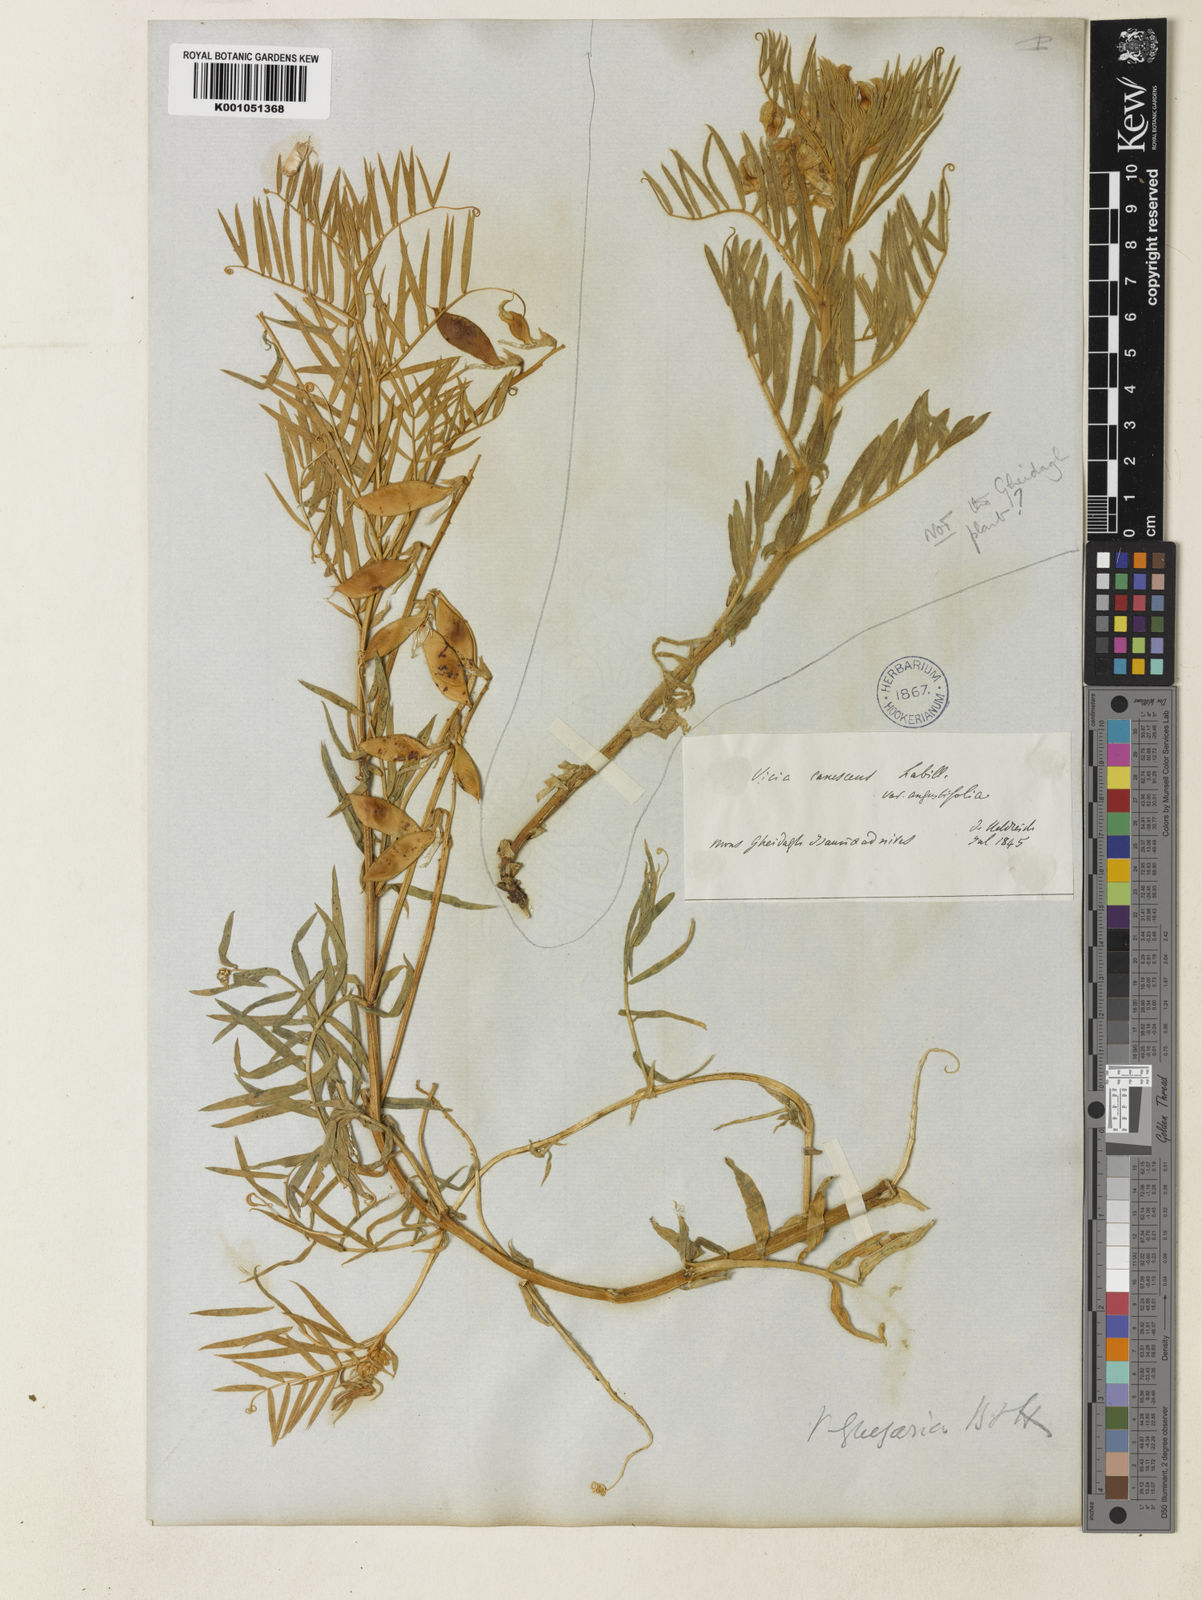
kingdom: Plantae
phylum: Tracheophyta
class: Magnoliopsida
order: Fabales
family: Fabaceae
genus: Vicia
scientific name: Vicia dumetorum
